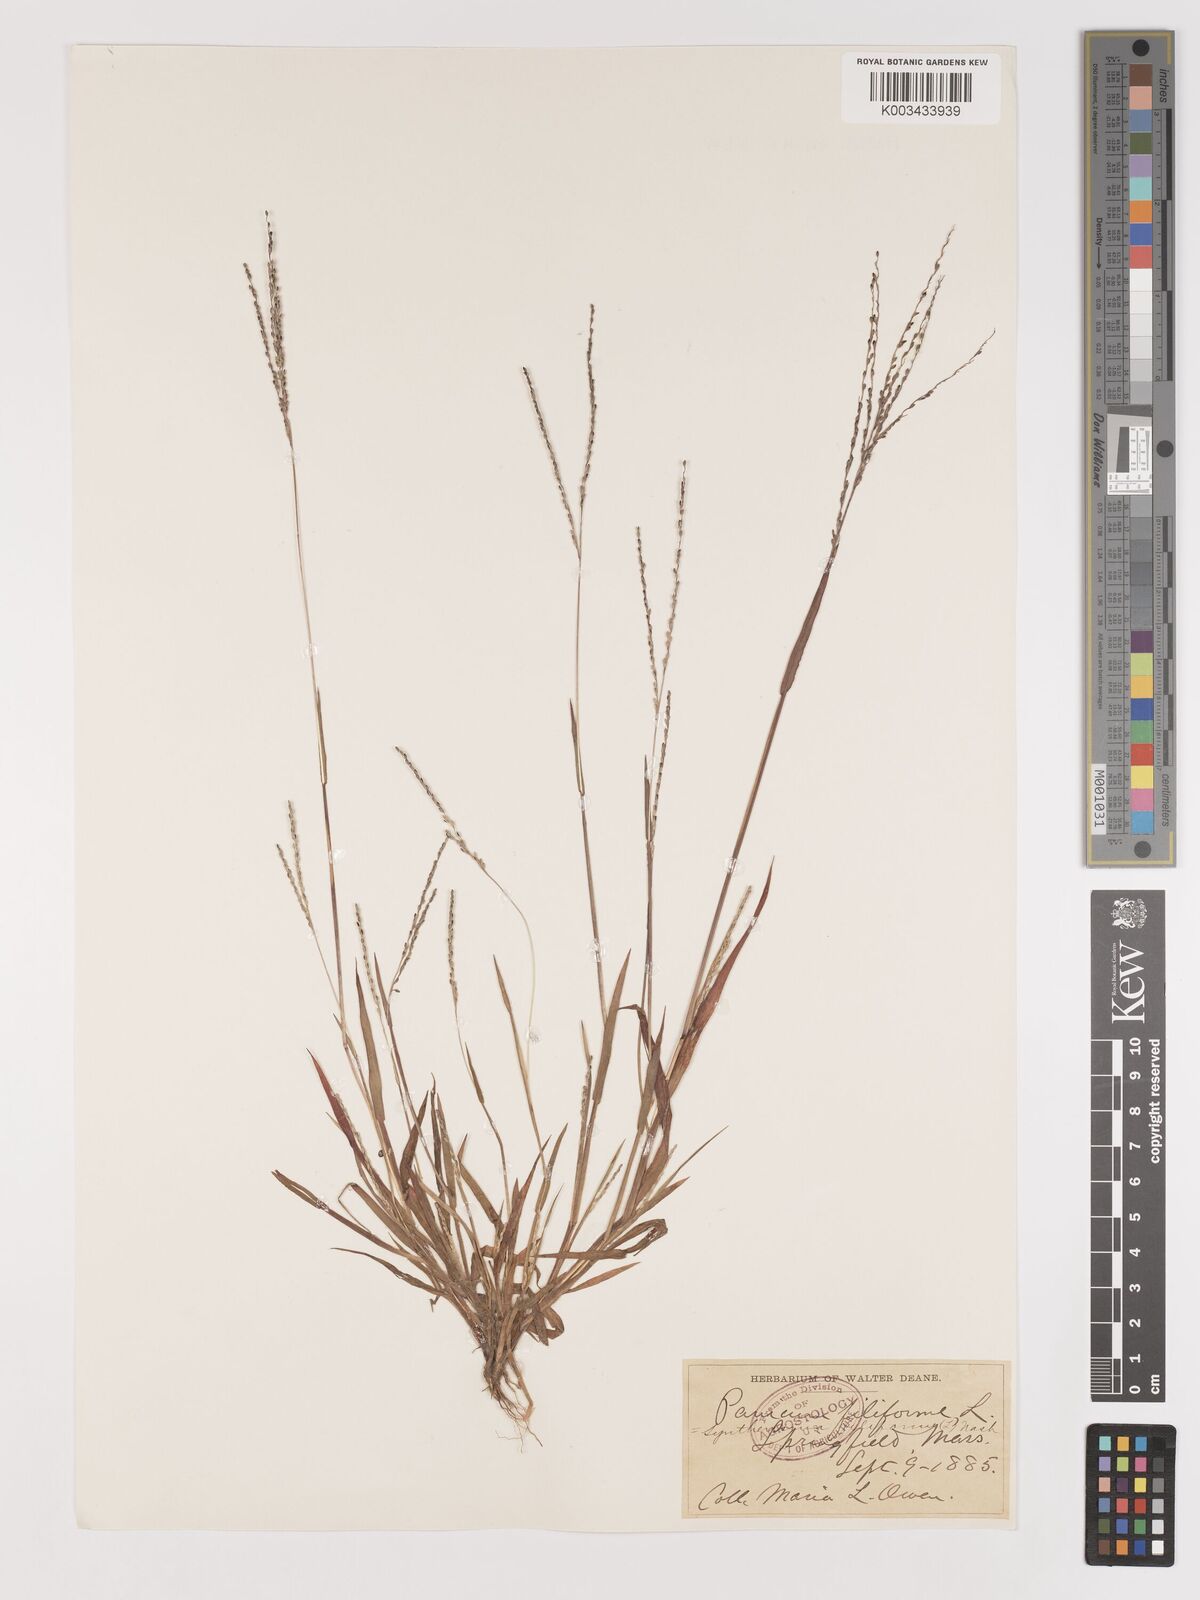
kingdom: Plantae
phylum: Tracheophyta
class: Liliopsida
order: Poales
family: Poaceae
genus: Digitaria
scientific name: Digitaria filiformis
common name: Slender crabgrass
